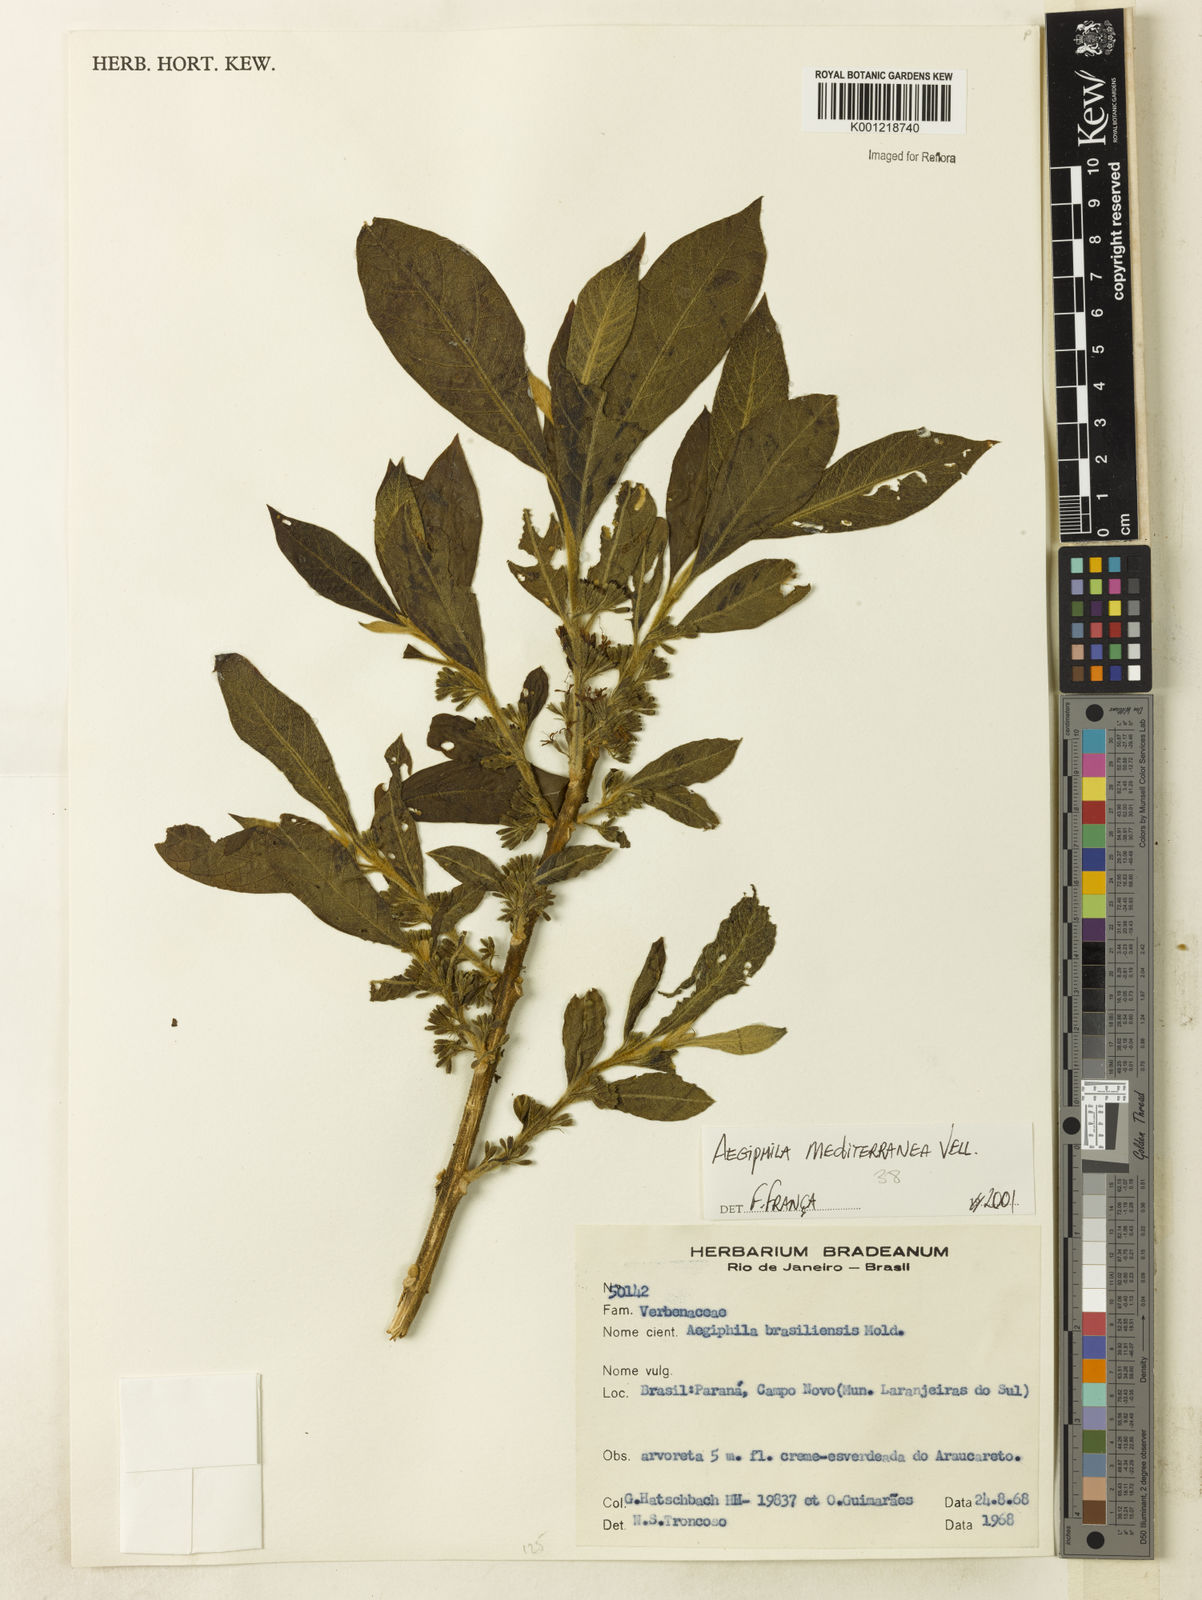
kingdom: Plantae
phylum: Tracheophyta
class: Magnoliopsida
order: Lamiales
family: Lamiaceae
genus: Aegiphila
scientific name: Aegiphila mediterranea
